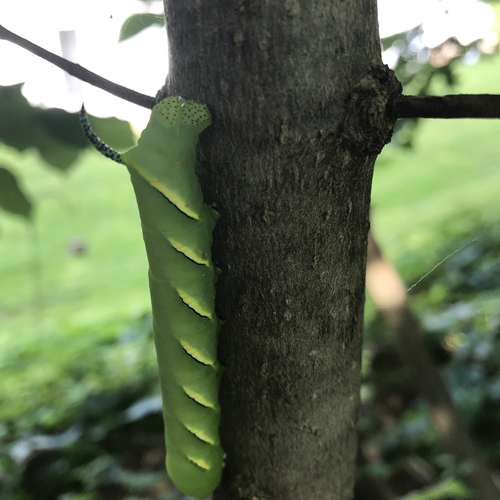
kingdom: Animalia
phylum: Arthropoda
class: Insecta
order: Lepidoptera
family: Sphingidae
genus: Sphinx
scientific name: Sphinx kalmiae
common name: Laurel sphinx
